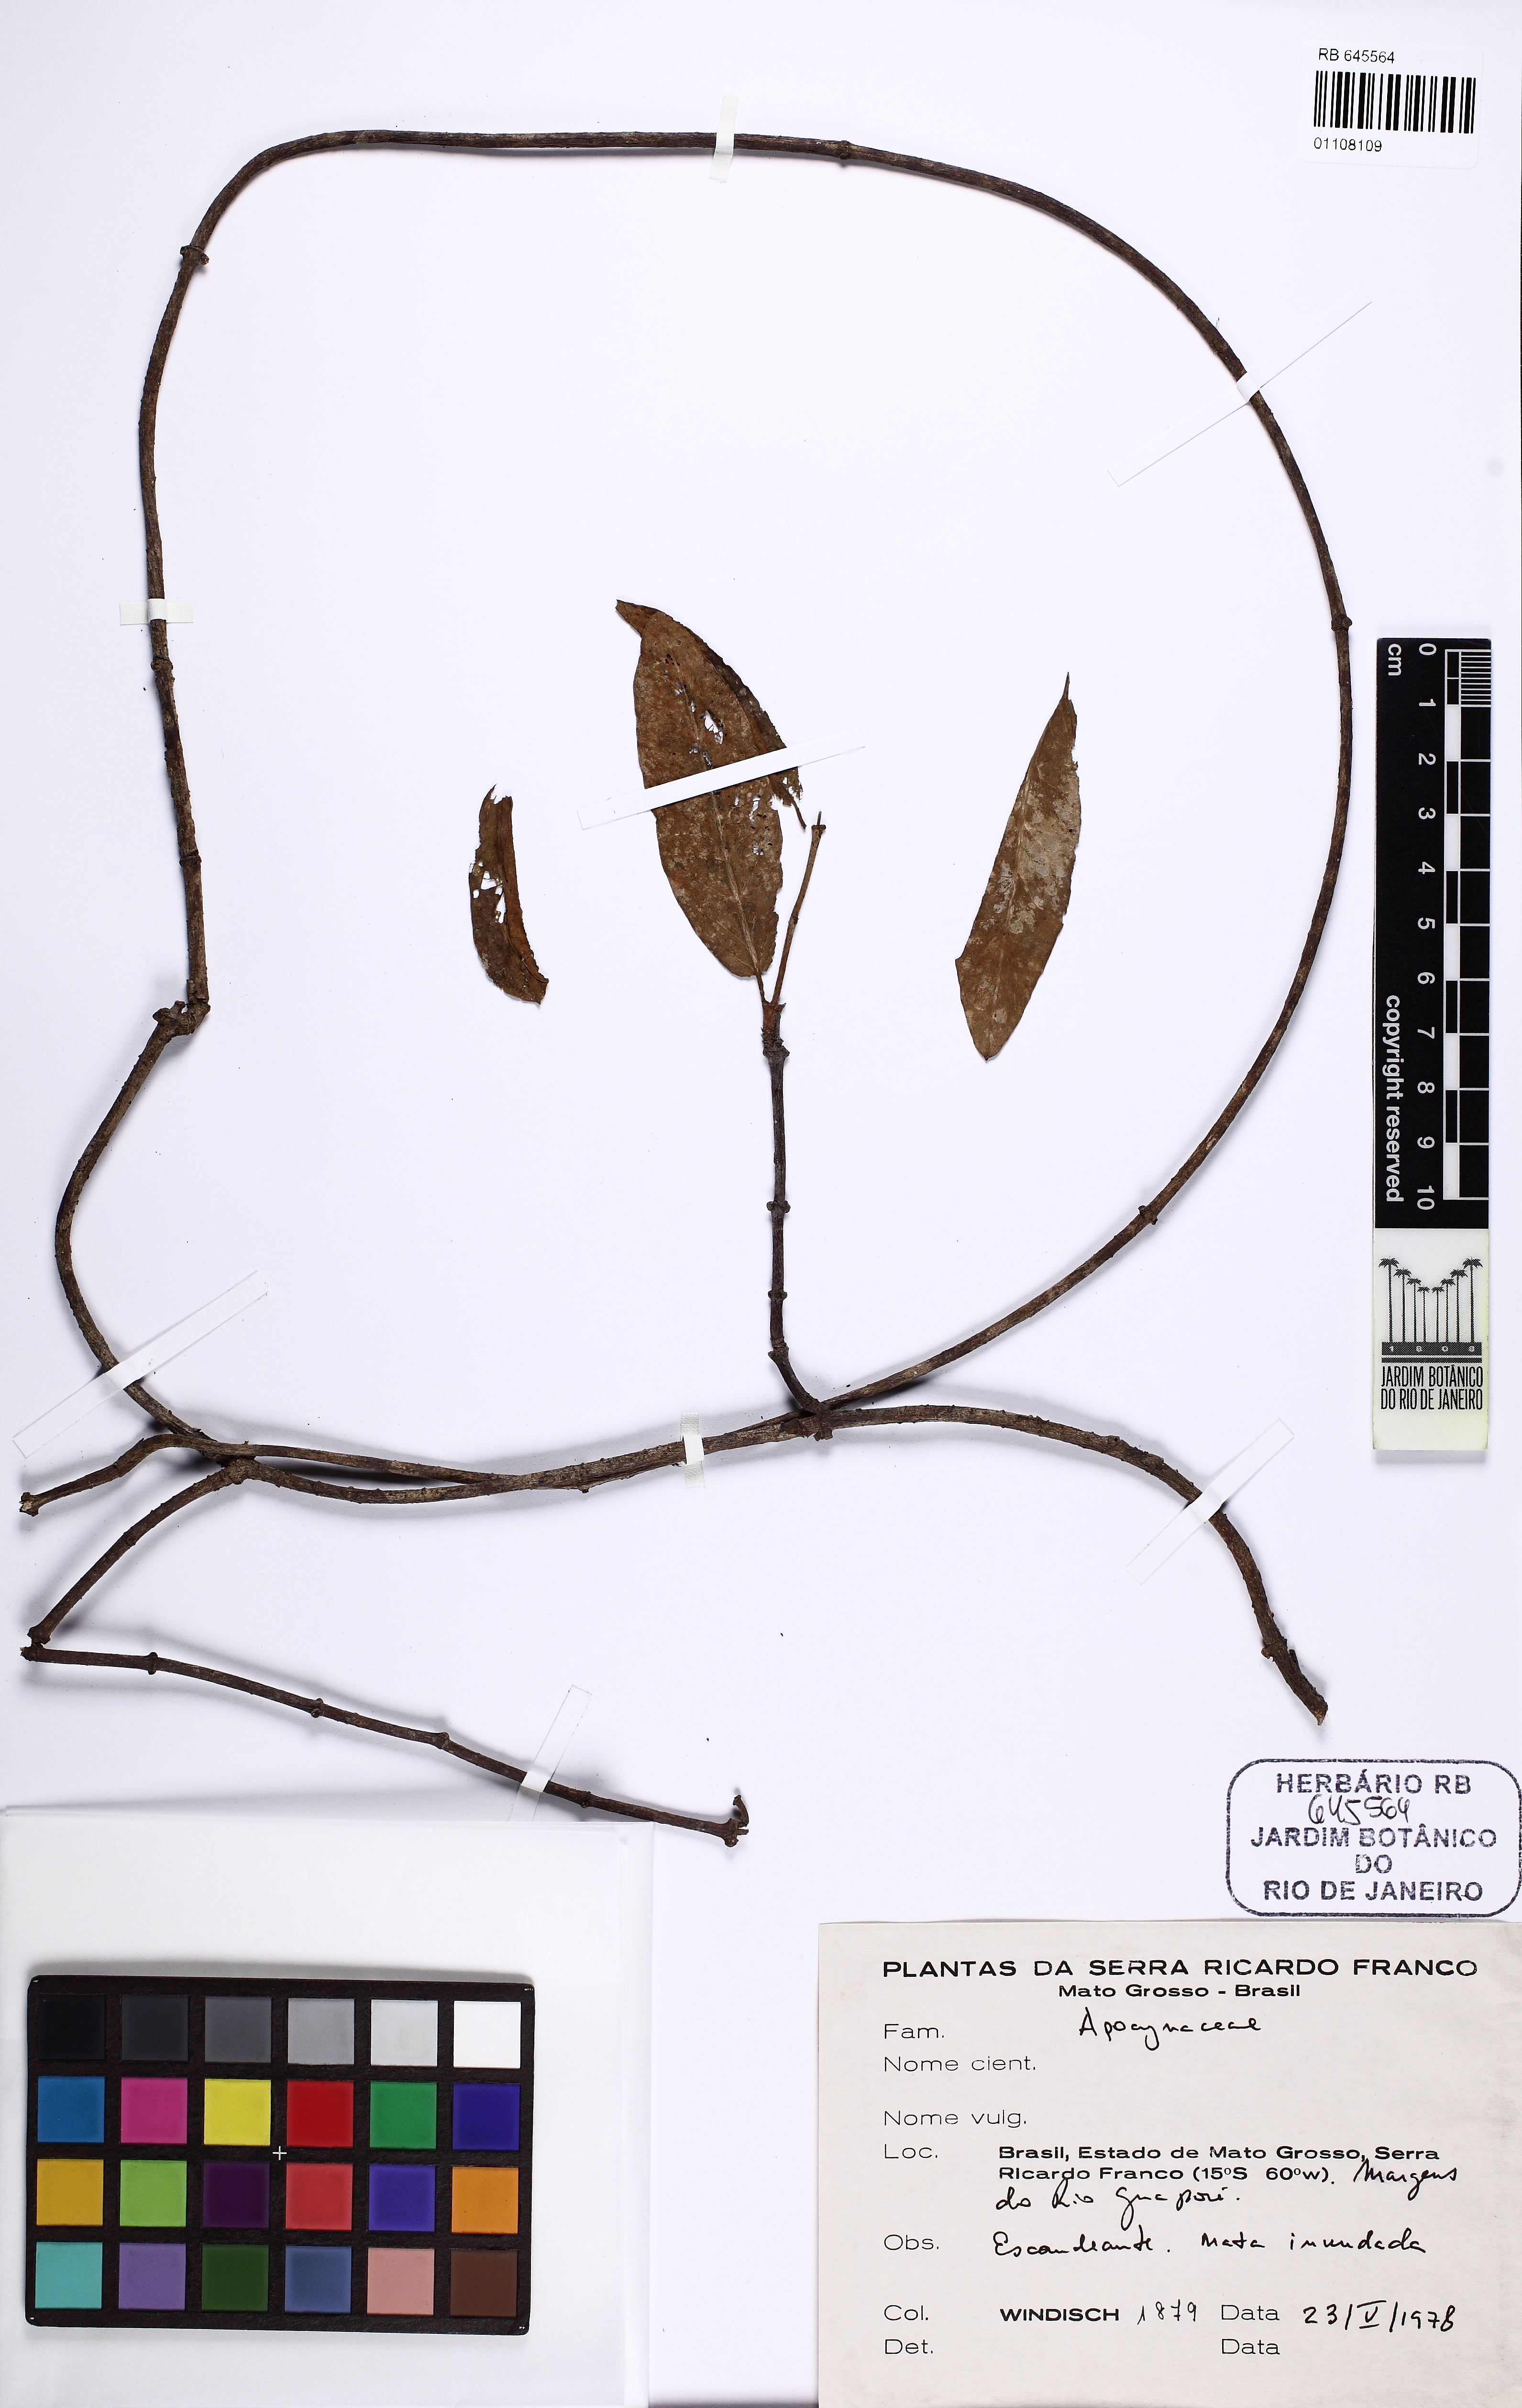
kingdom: Plantae
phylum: Tracheophyta
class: Magnoliopsida
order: Gentianales
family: Apocynaceae
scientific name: Apocynaceae
